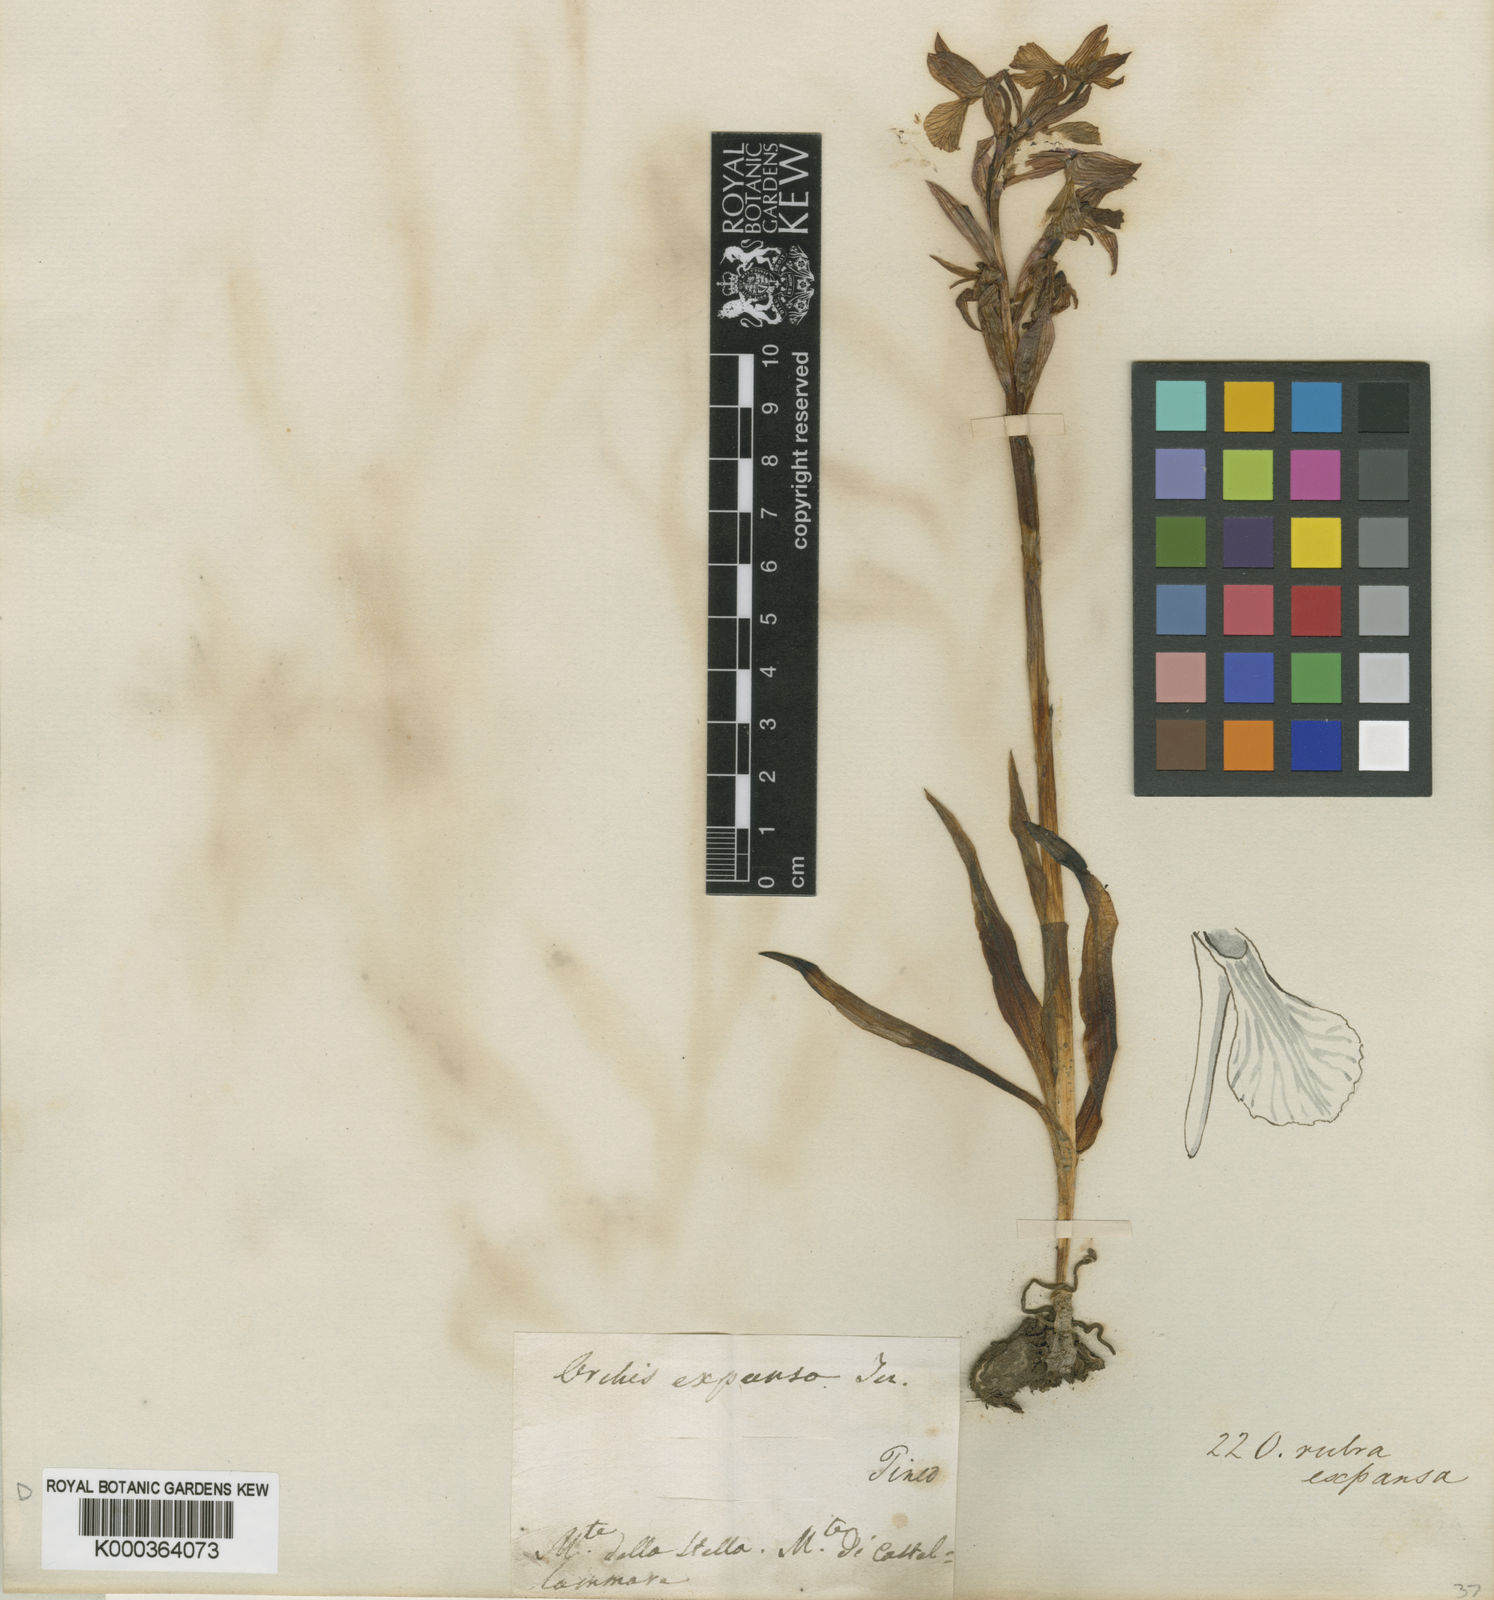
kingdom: Plantae
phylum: Tracheophyta
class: Liliopsida
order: Asparagales
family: Orchidaceae
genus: Anacamptis
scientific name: Anacamptis papilionacea
